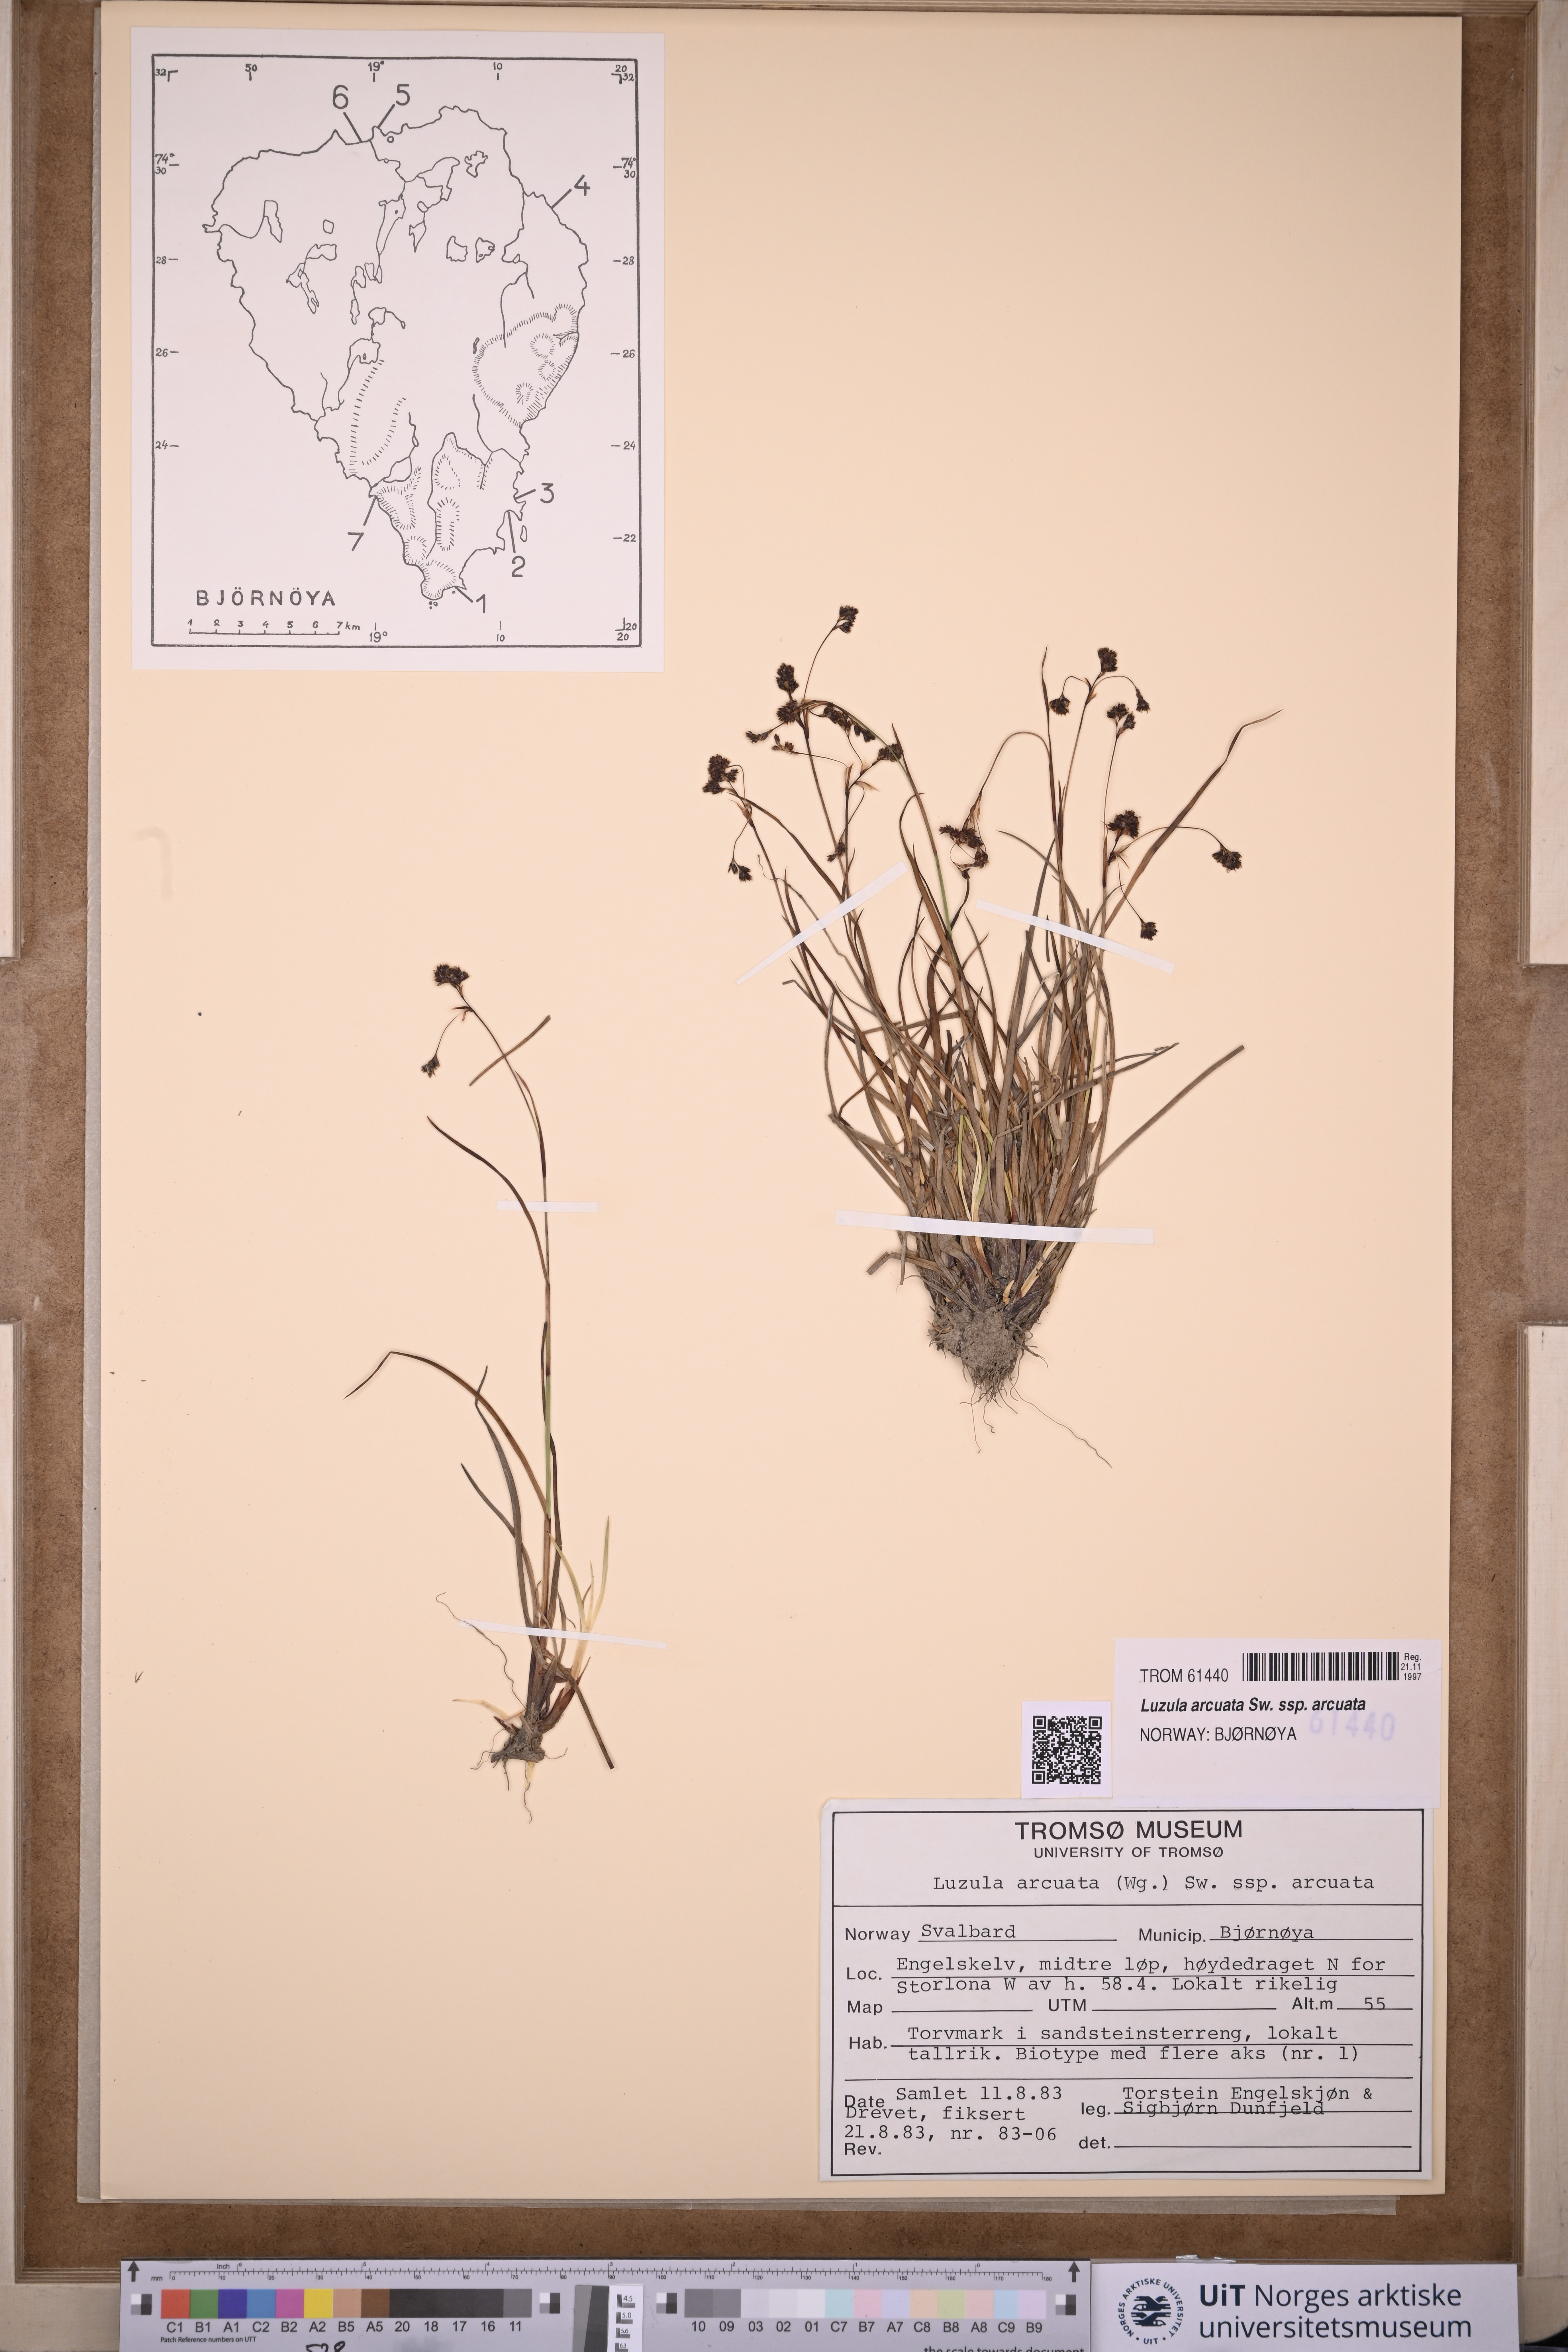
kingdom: Plantae
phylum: Tracheophyta
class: Liliopsida
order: Poales
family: Juncaceae
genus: Luzula
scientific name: Luzula arcuata
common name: Curved wood-rush
